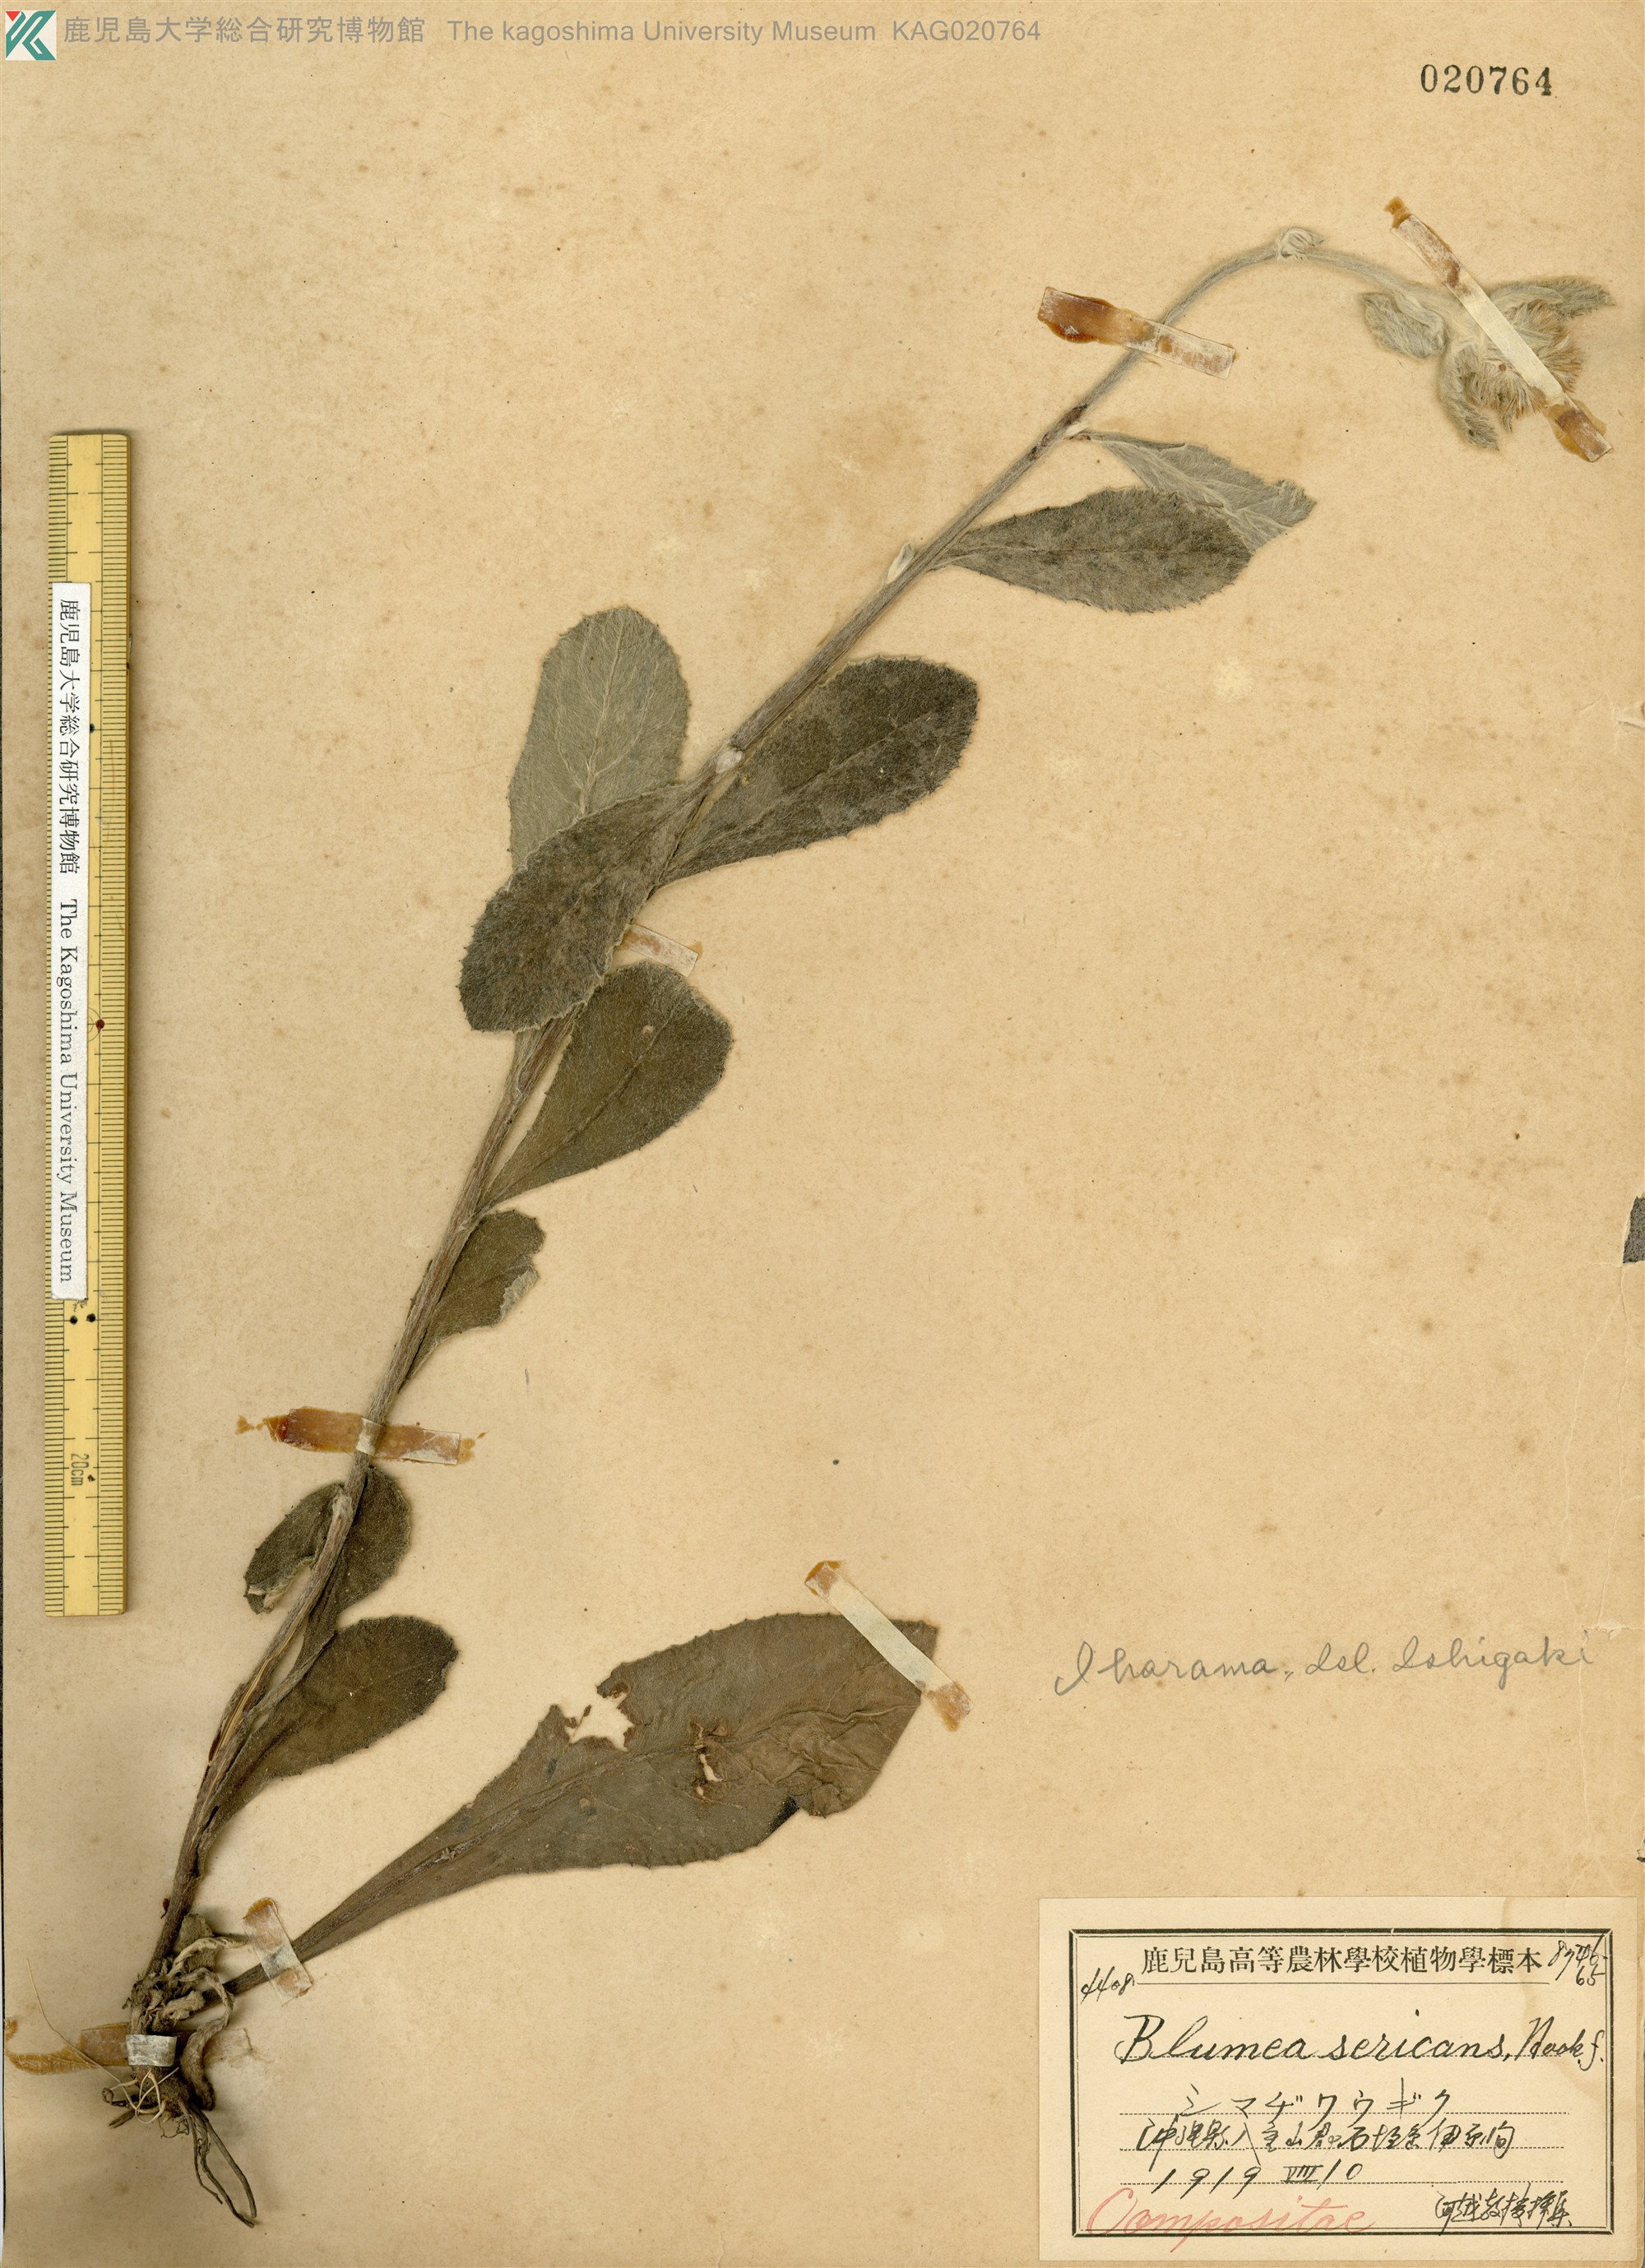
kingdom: Plantae
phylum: Tracheophyta
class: Magnoliopsida
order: Asterales
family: Asteraceae
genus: Blumea
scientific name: Blumea hieraciifolia
